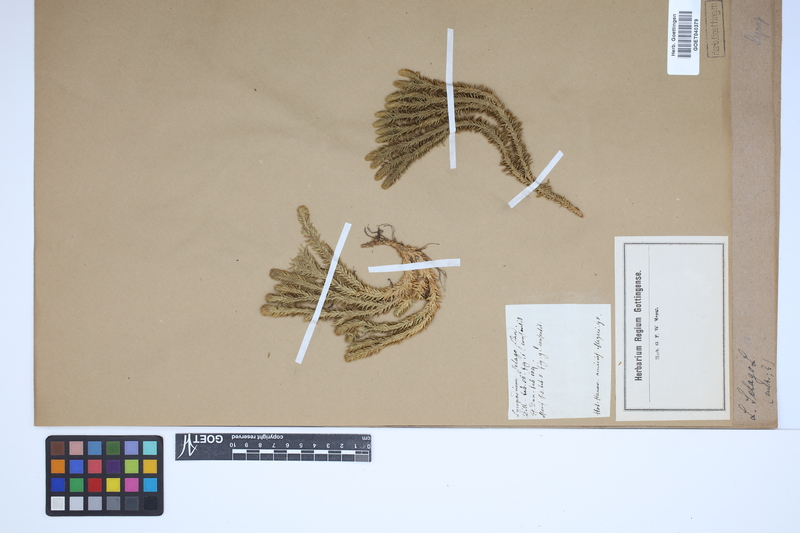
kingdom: Plantae
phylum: Tracheophyta
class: Lycopodiopsida
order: Lycopodiales
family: Lycopodiaceae
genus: Huperzia
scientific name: Huperzia selago
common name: Northern firmoss
